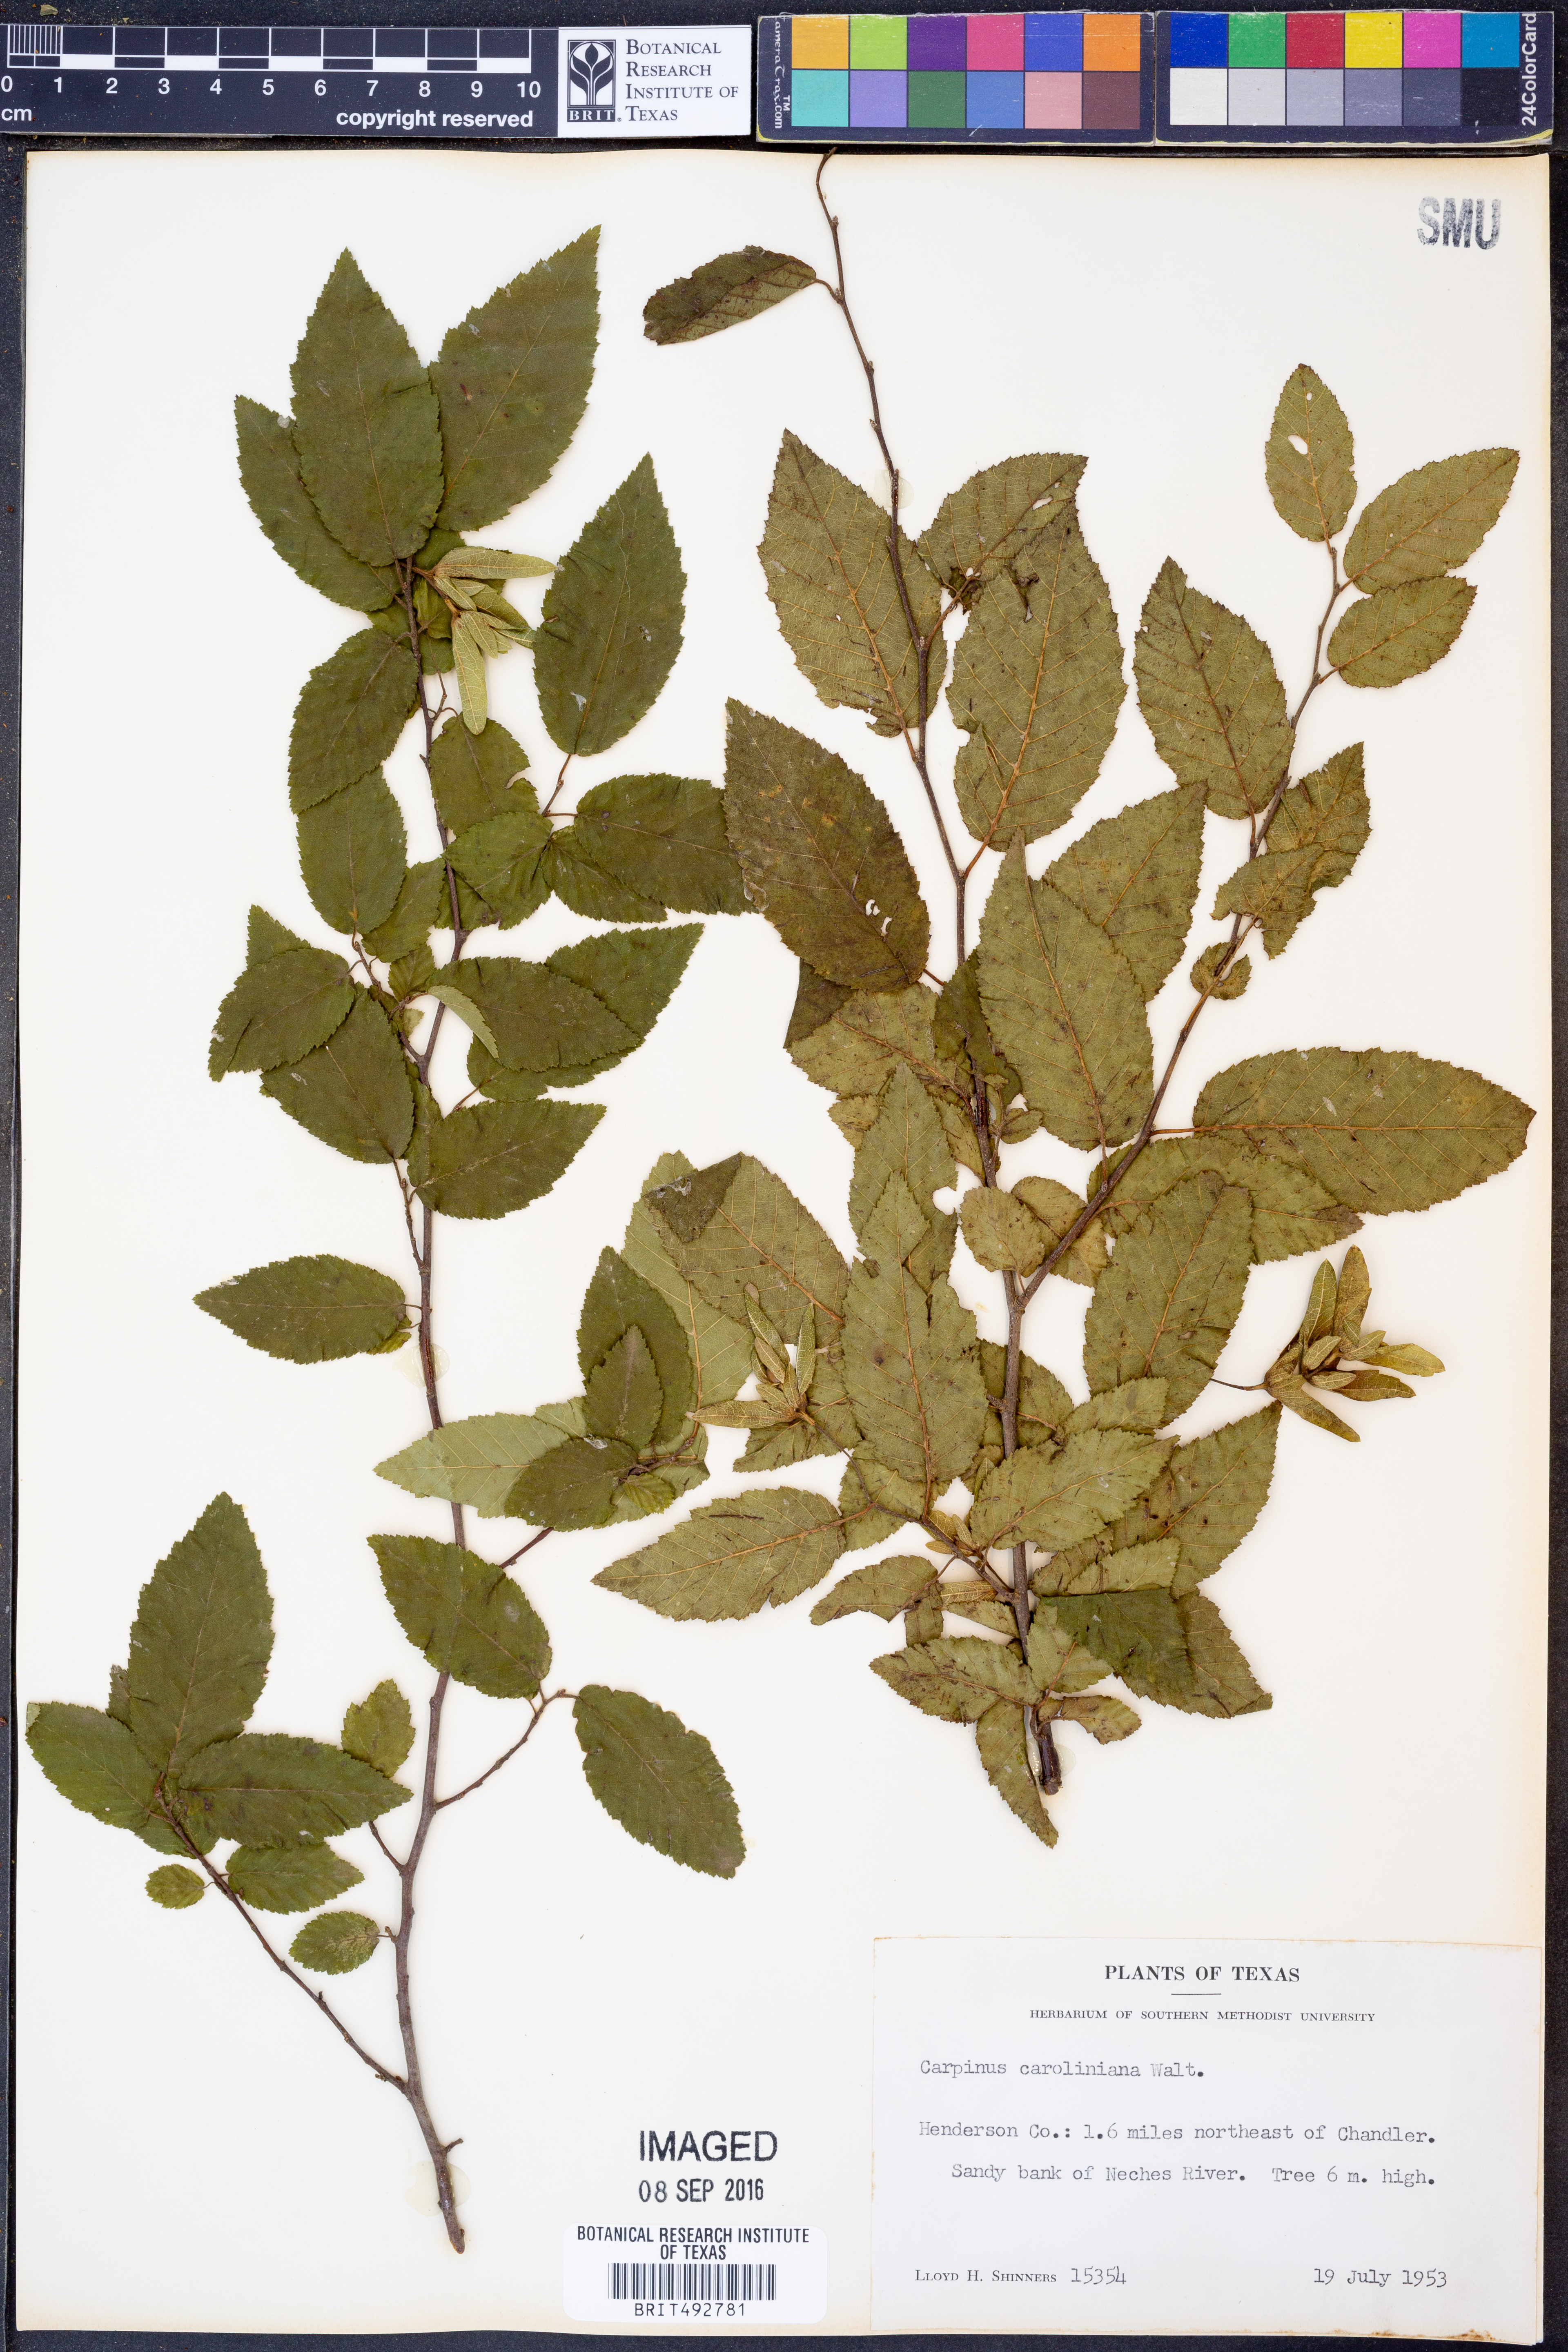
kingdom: Plantae
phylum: Tracheophyta
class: Magnoliopsida
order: Fagales
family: Betulaceae
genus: Carpinus
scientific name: Carpinus caroliniana
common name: American hornbeam
